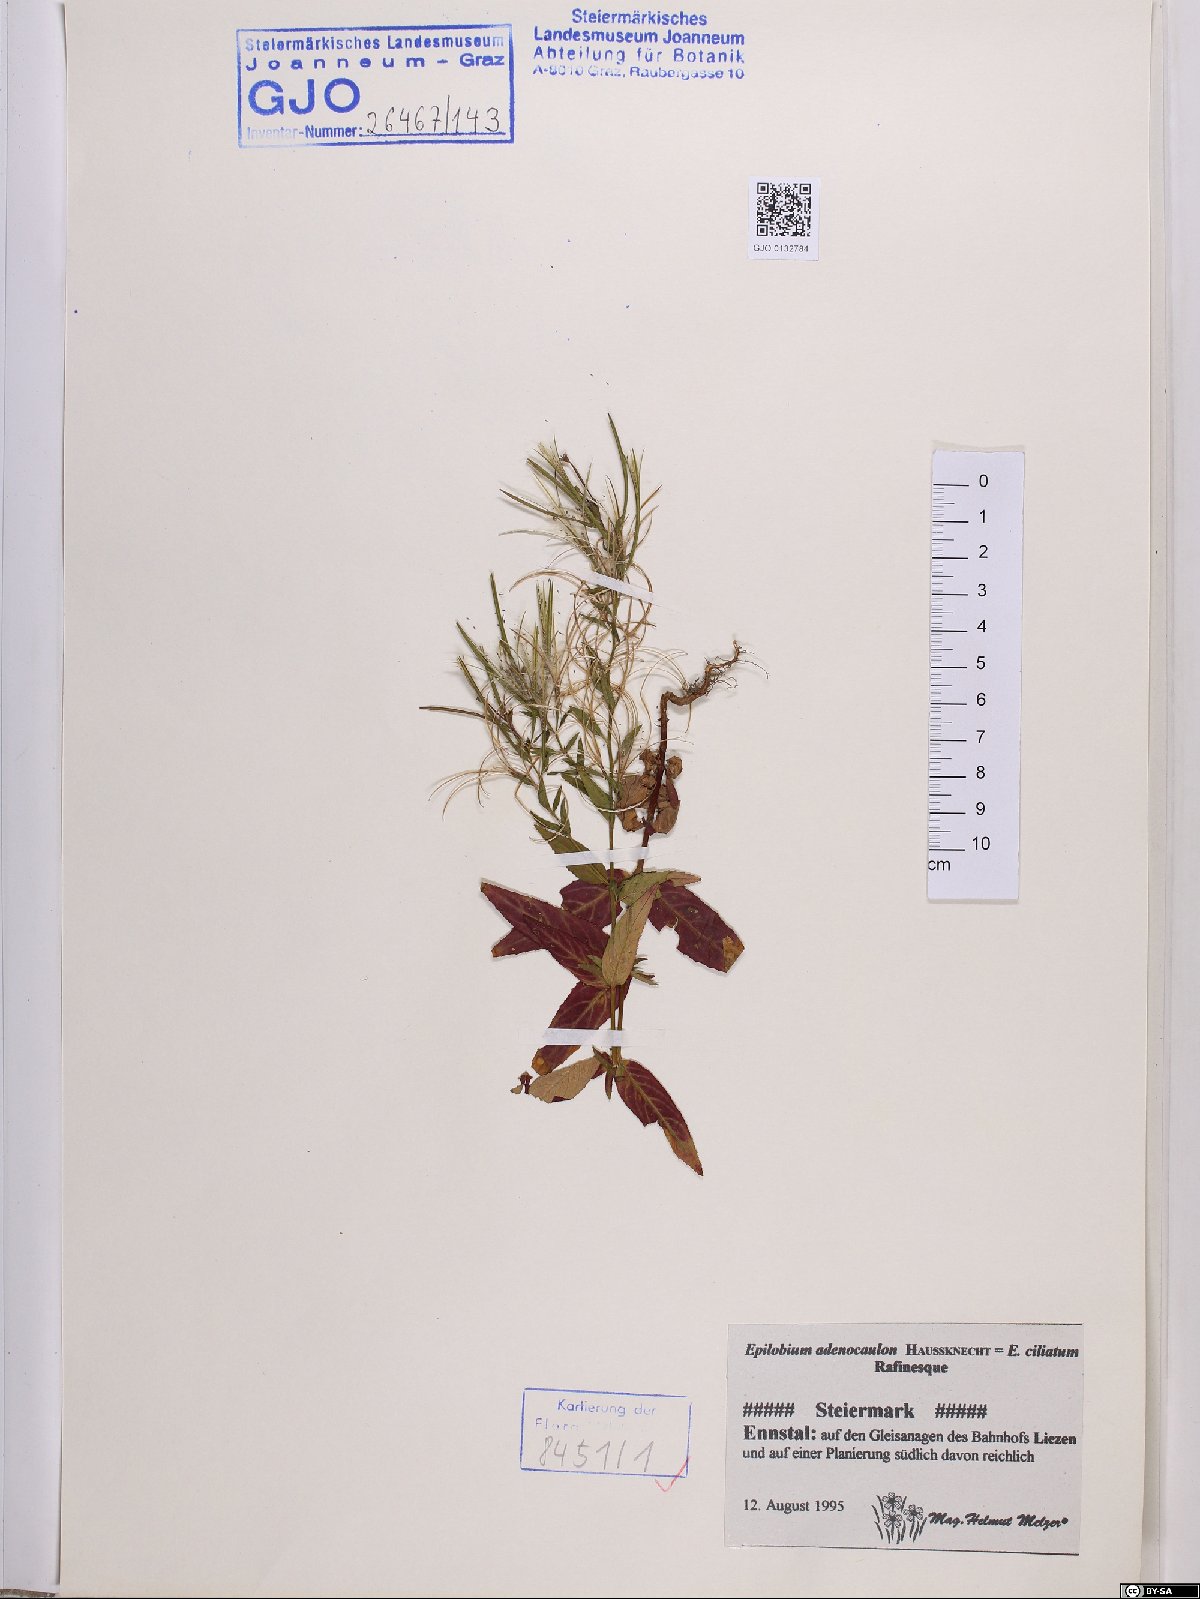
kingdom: Plantae
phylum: Tracheophyta
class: Magnoliopsida
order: Myrtales
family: Onagraceae
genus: Epilobium
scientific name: Epilobium ciliatum
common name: American willowherb
